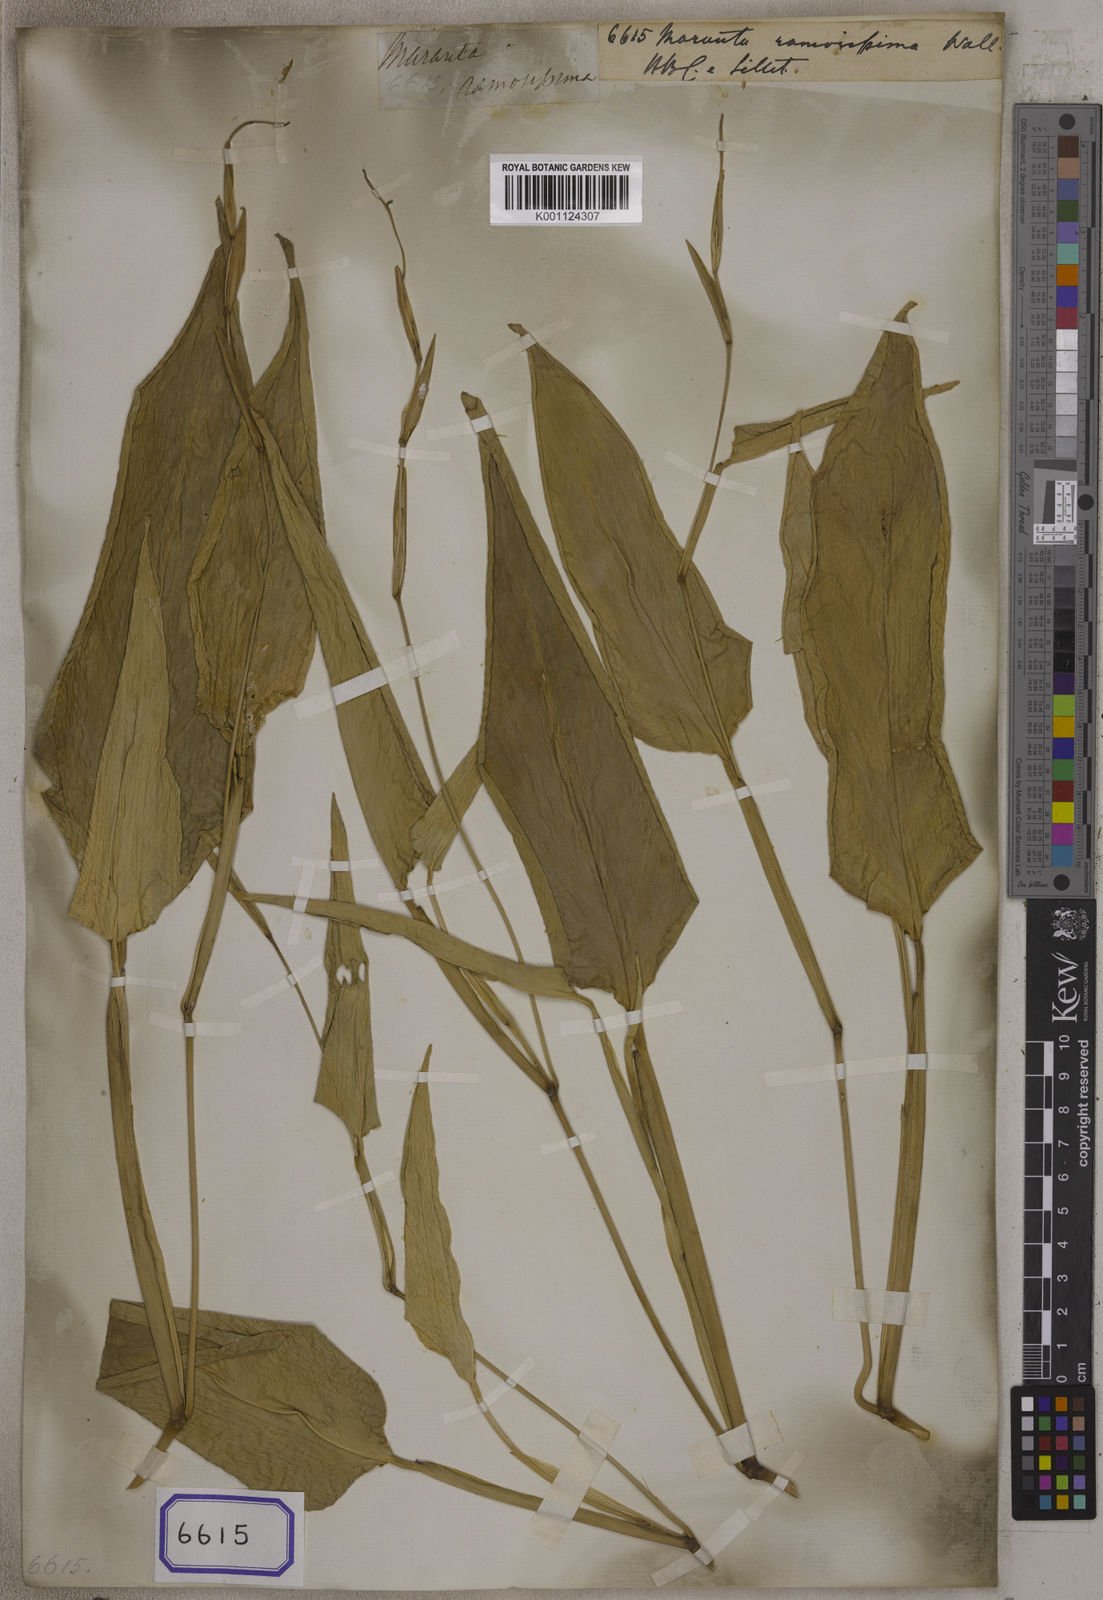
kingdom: Plantae
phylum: Tracheophyta
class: Liliopsida
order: Zingiberales
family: Marantaceae
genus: Maranta
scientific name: Maranta arundinacea
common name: Arrowroot
